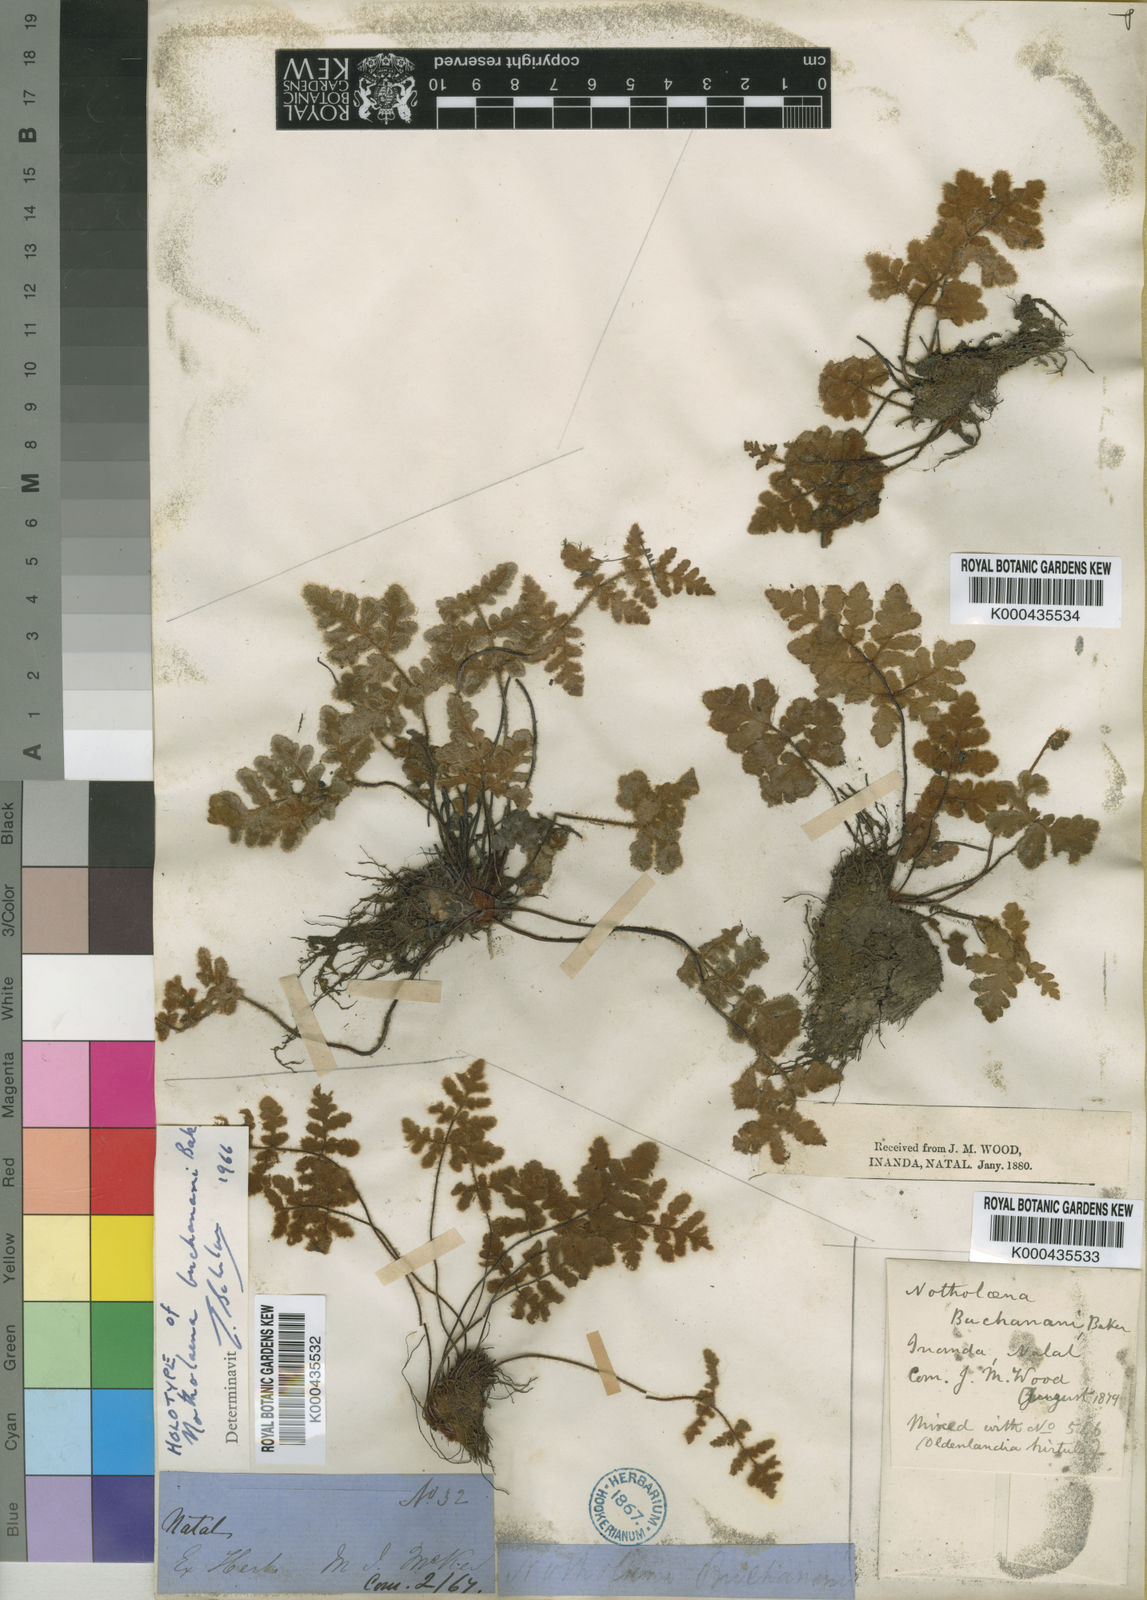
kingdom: Plantae
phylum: Tracheophyta
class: Polypodiopsida
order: Polypodiales
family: Pteridaceae
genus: Cheilanthes
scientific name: Cheilanthes inaequalis
